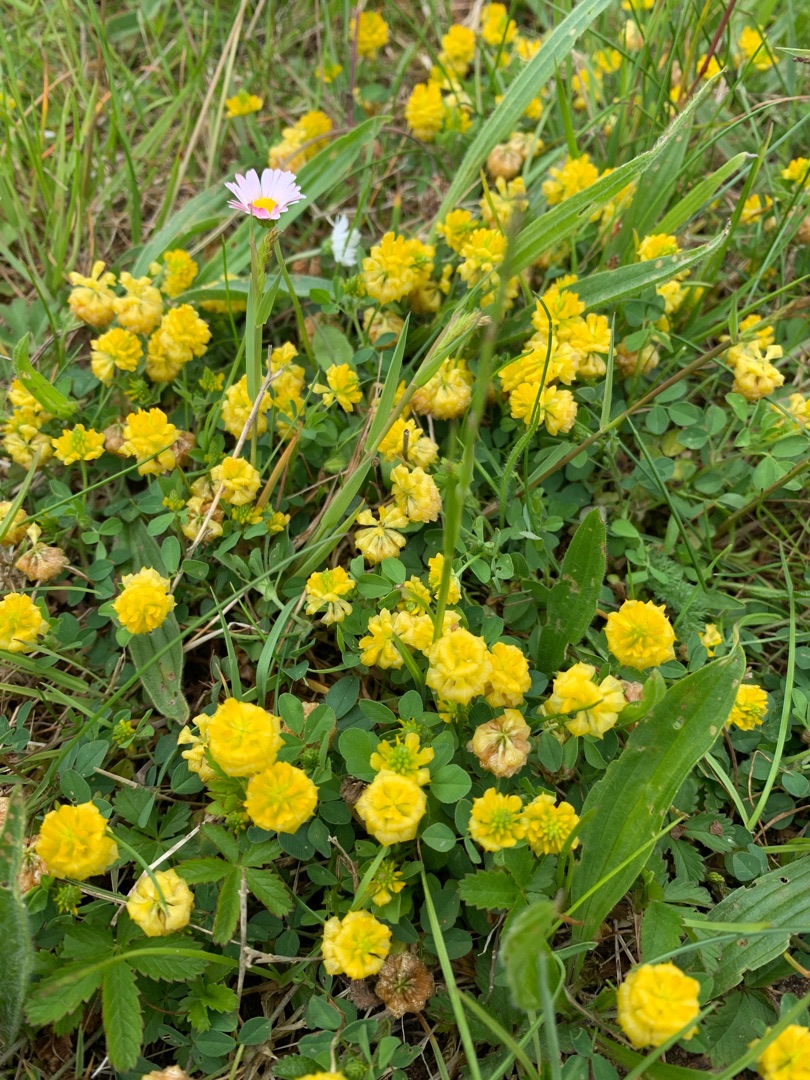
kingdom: Plantae
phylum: Tracheophyta
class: Magnoliopsida
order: Fabales
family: Fabaceae
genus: Trifolium
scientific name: Trifolium campestre
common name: Gul kløver
